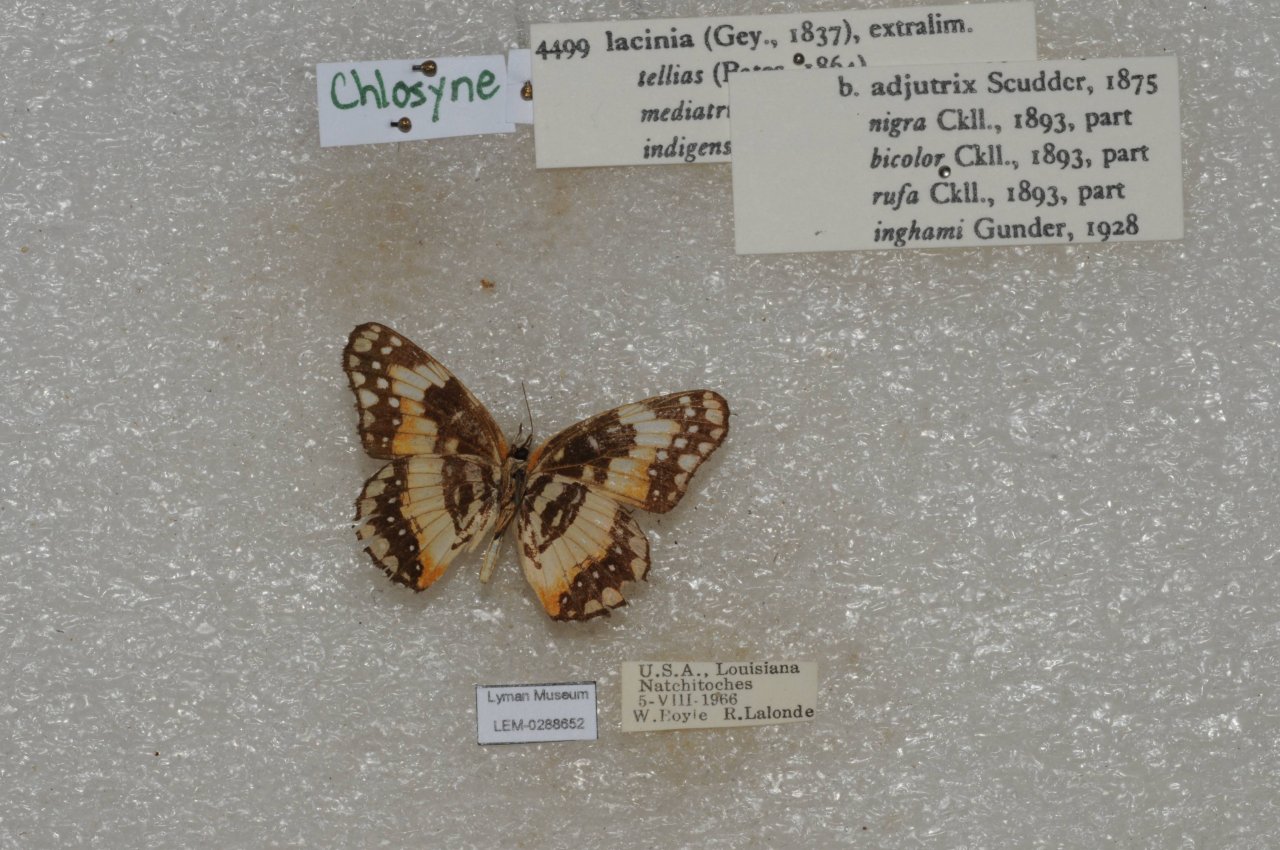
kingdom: Animalia
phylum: Arthropoda
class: Insecta
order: Lepidoptera
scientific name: Lepidoptera
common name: Butterflies
